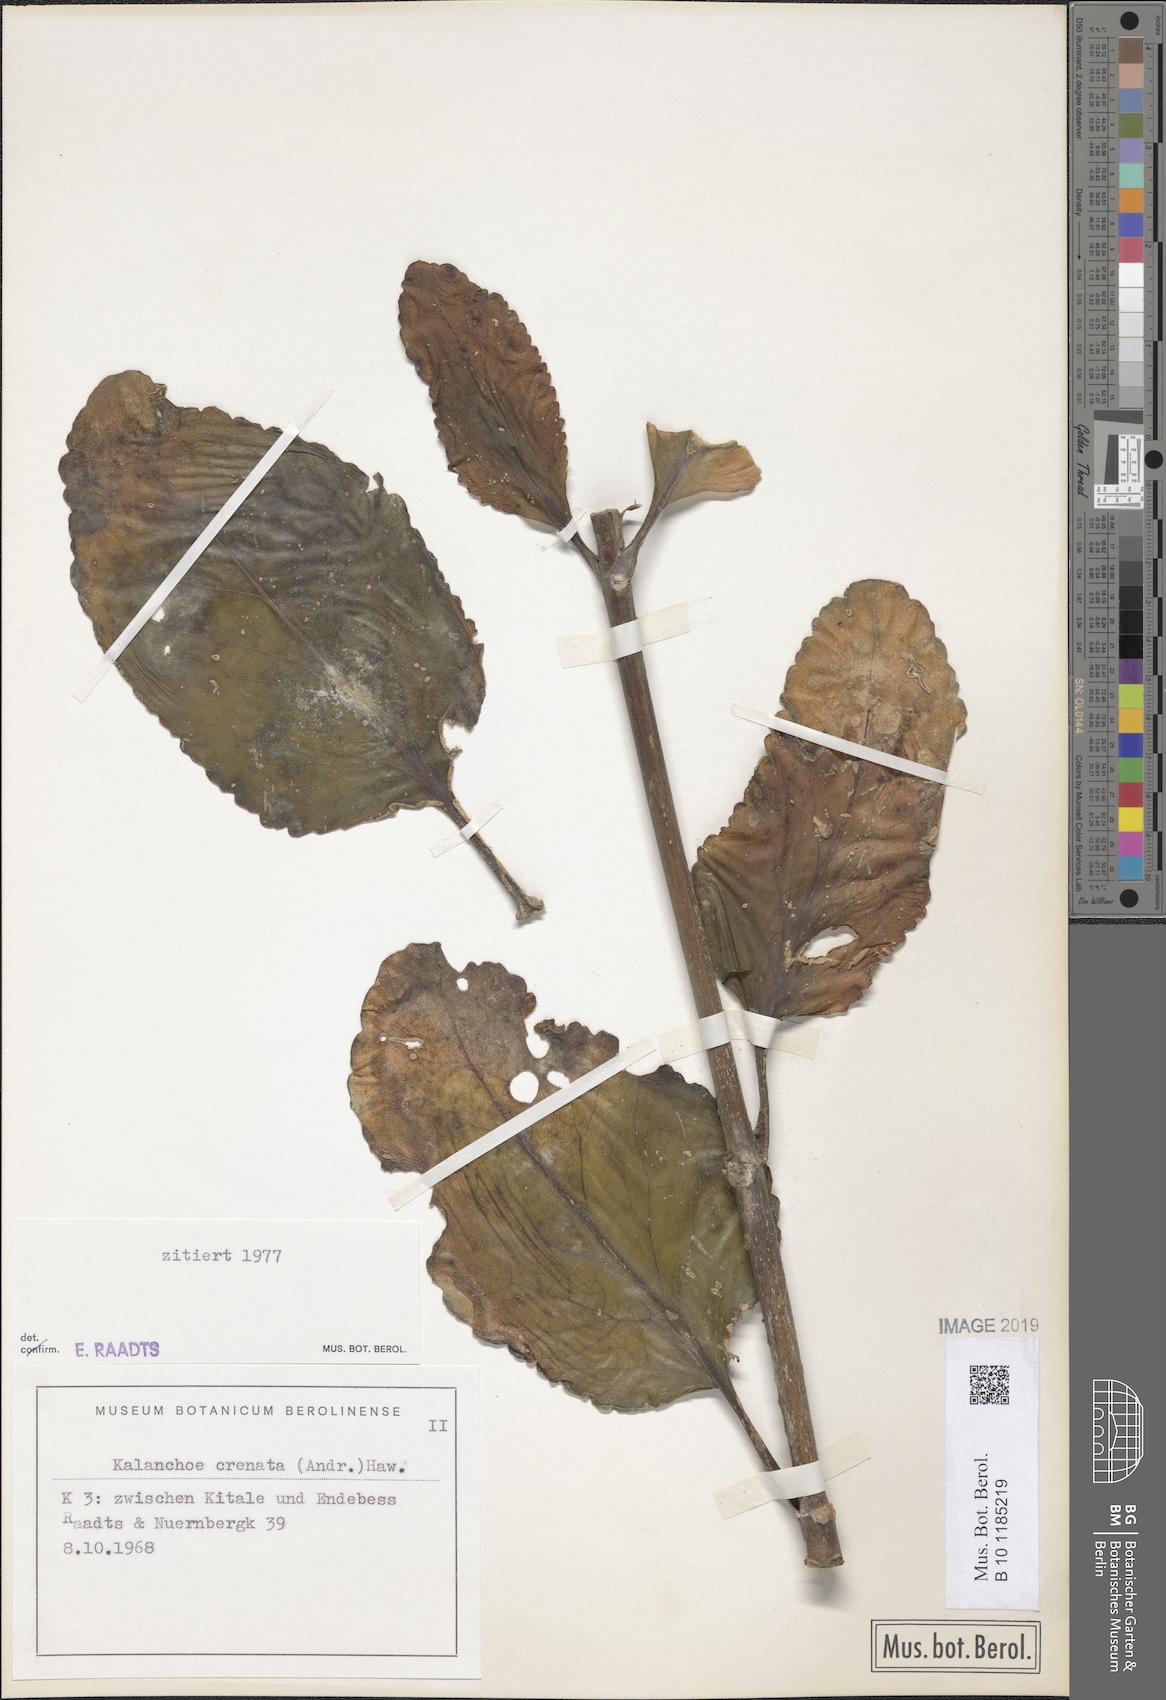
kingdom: Plantae
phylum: Tracheophyta
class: Magnoliopsida
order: Saxifragales
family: Crassulaceae
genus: Kalanchoe
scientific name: Kalanchoe crenata
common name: Neverdie
